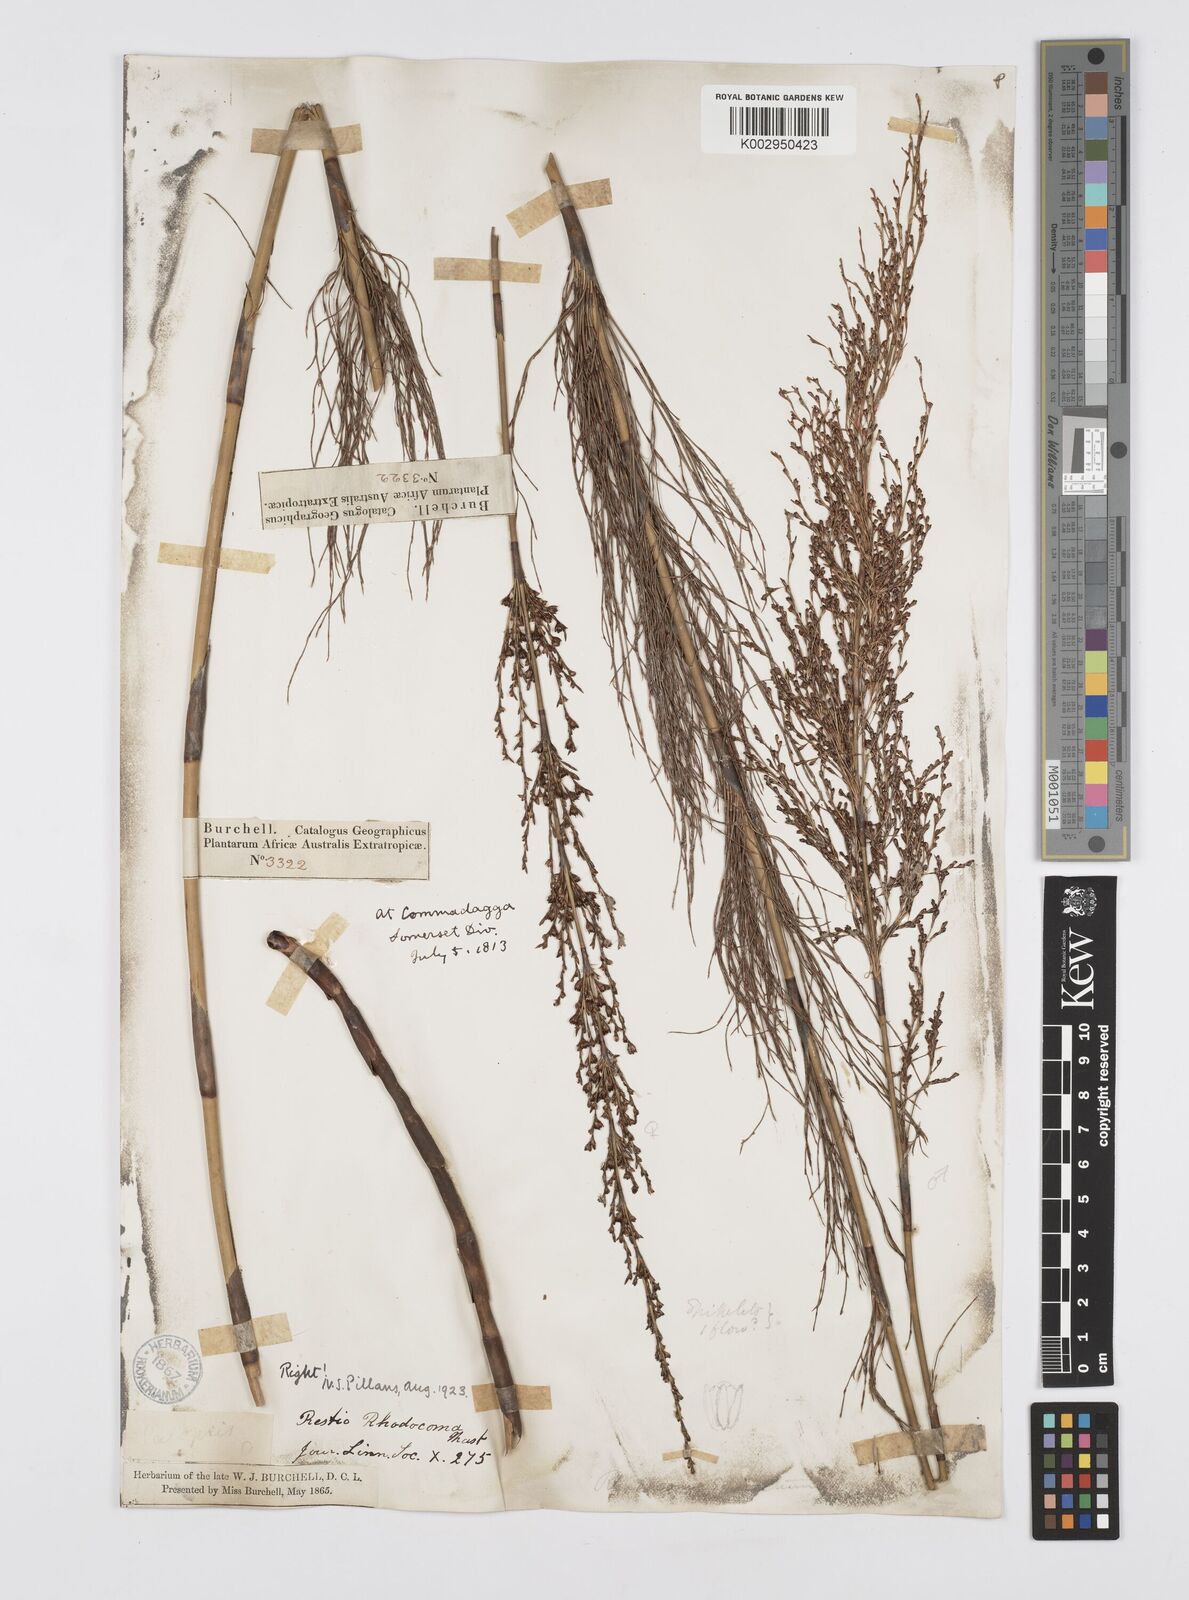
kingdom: Plantae
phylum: Tracheophyta
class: Liliopsida
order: Poales
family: Restionaceae
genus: Rhodocoma
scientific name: Rhodocoma capensis
